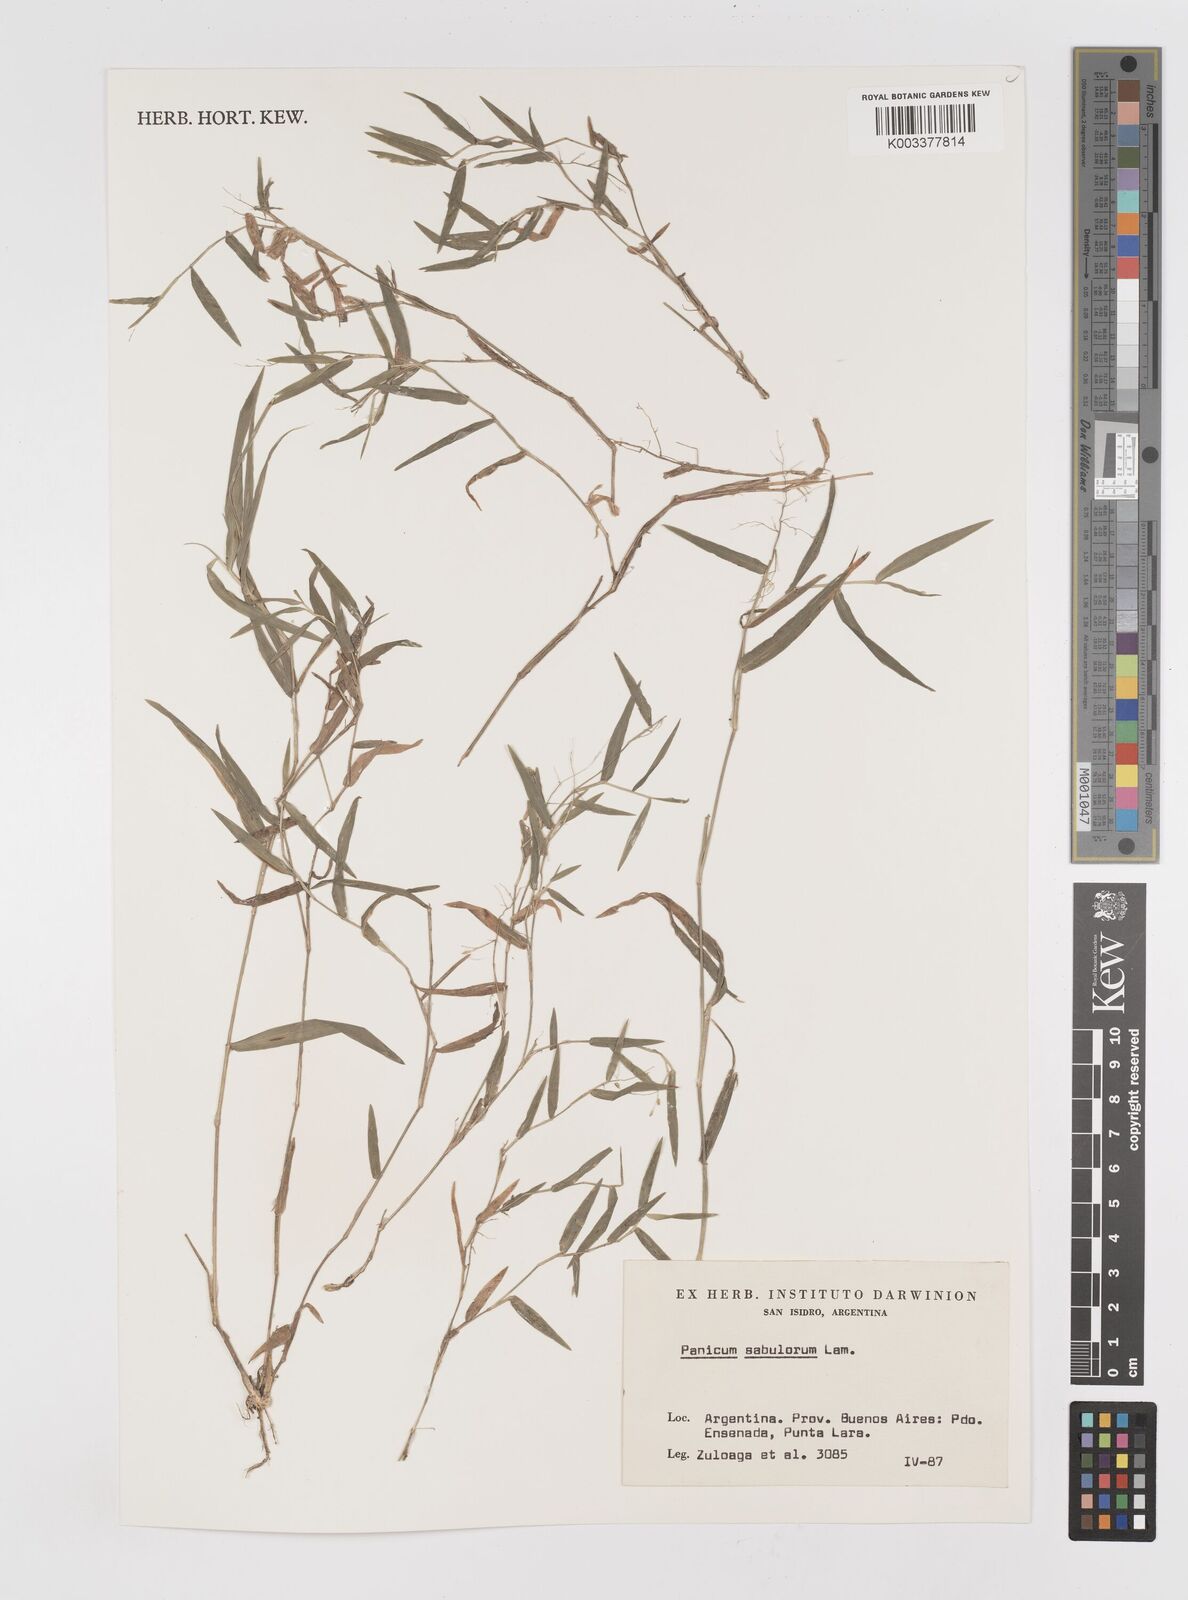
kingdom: Plantae
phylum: Tracheophyta
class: Liliopsida
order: Poales
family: Poaceae
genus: Dichanthelium
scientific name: Dichanthelium sabulorum
